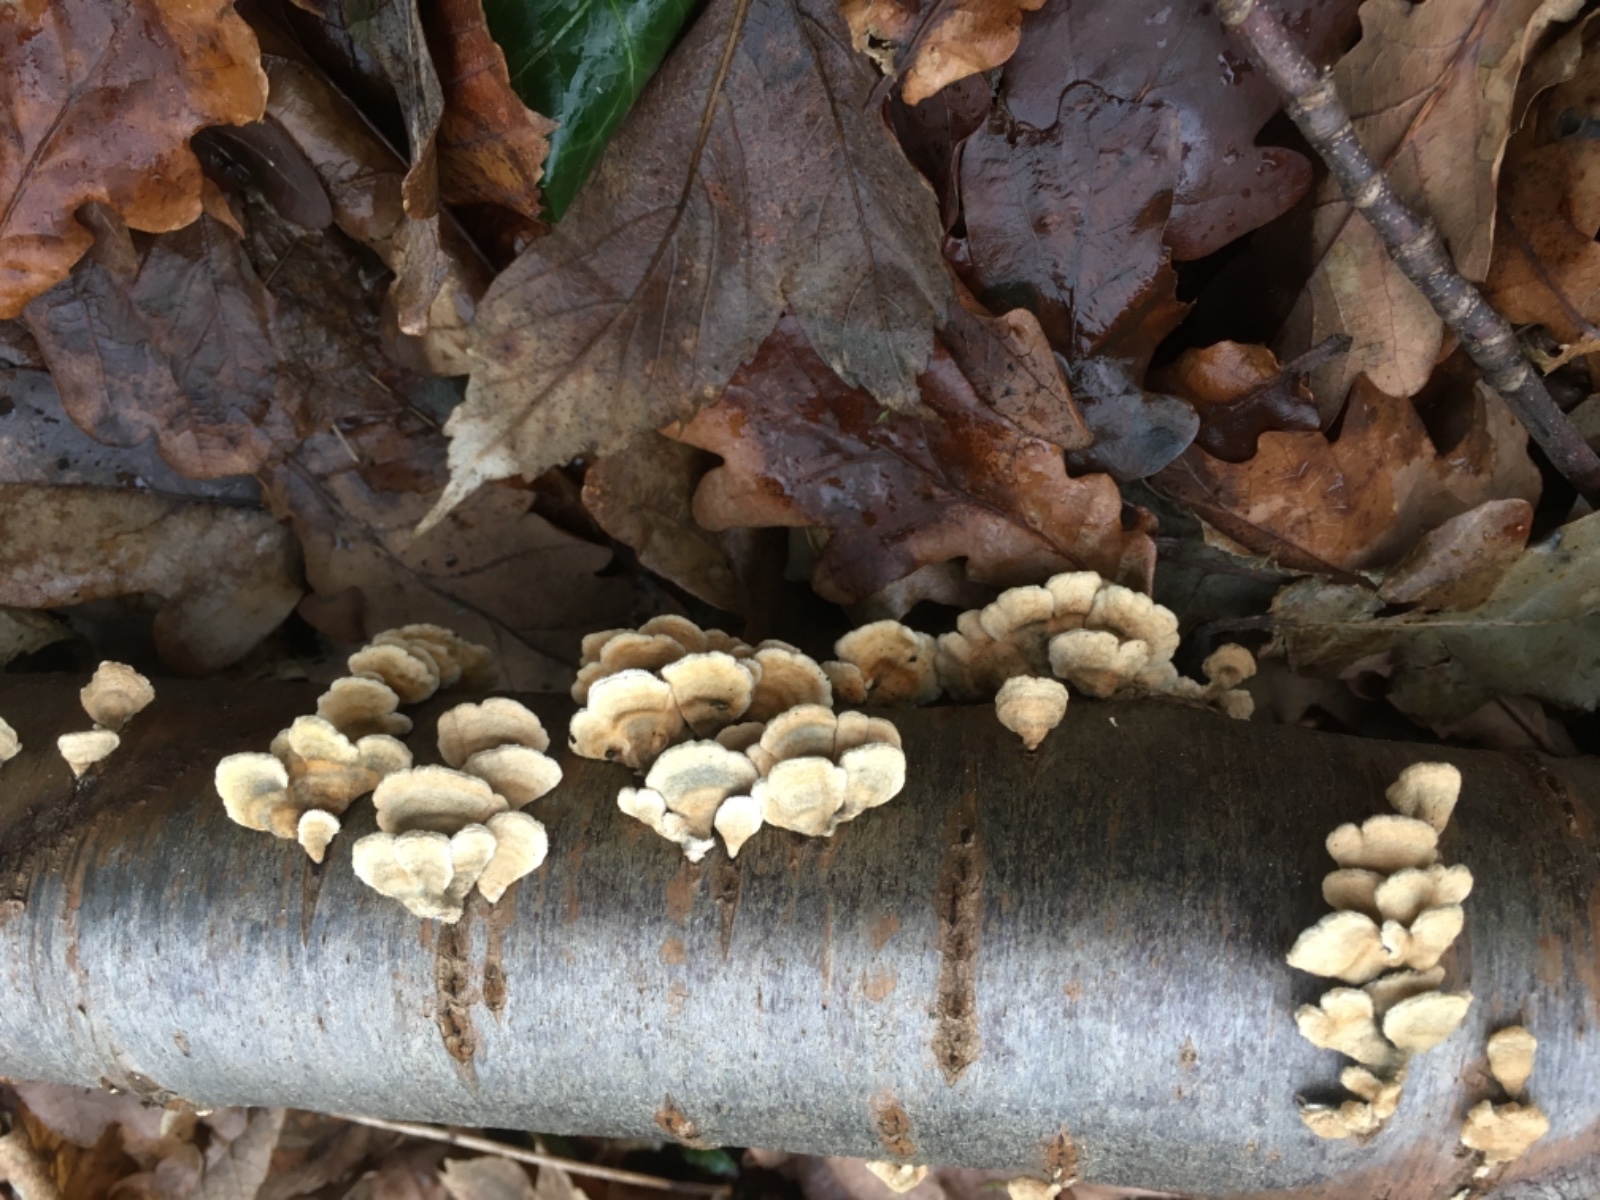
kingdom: Fungi
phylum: Basidiomycota
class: Agaricomycetes
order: Amylocorticiales
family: Amylocorticiaceae
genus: Plicaturopsis
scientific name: Plicaturopsis crispa
